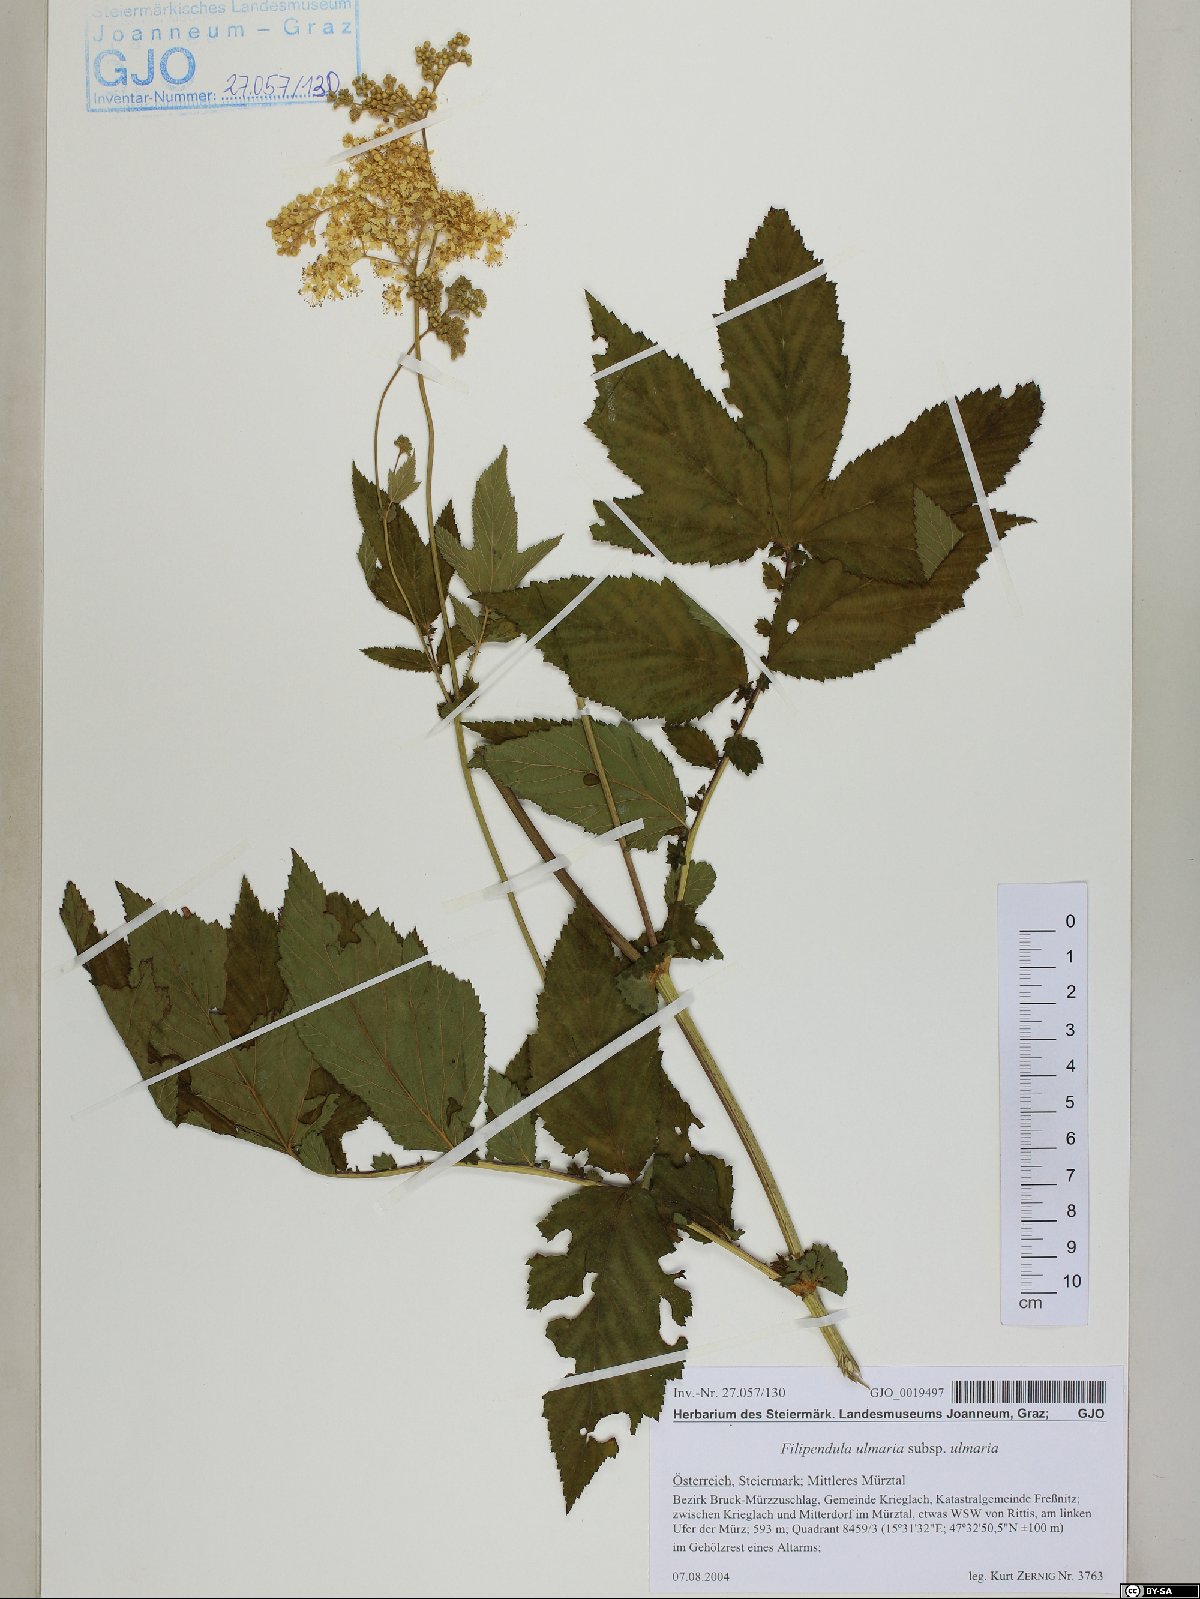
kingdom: Plantae
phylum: Tracheophyta
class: Magnoliopsida
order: Rosales
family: Rosaceae
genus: Filipendula
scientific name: Filipendula ulmaria
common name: Meadowsweet
